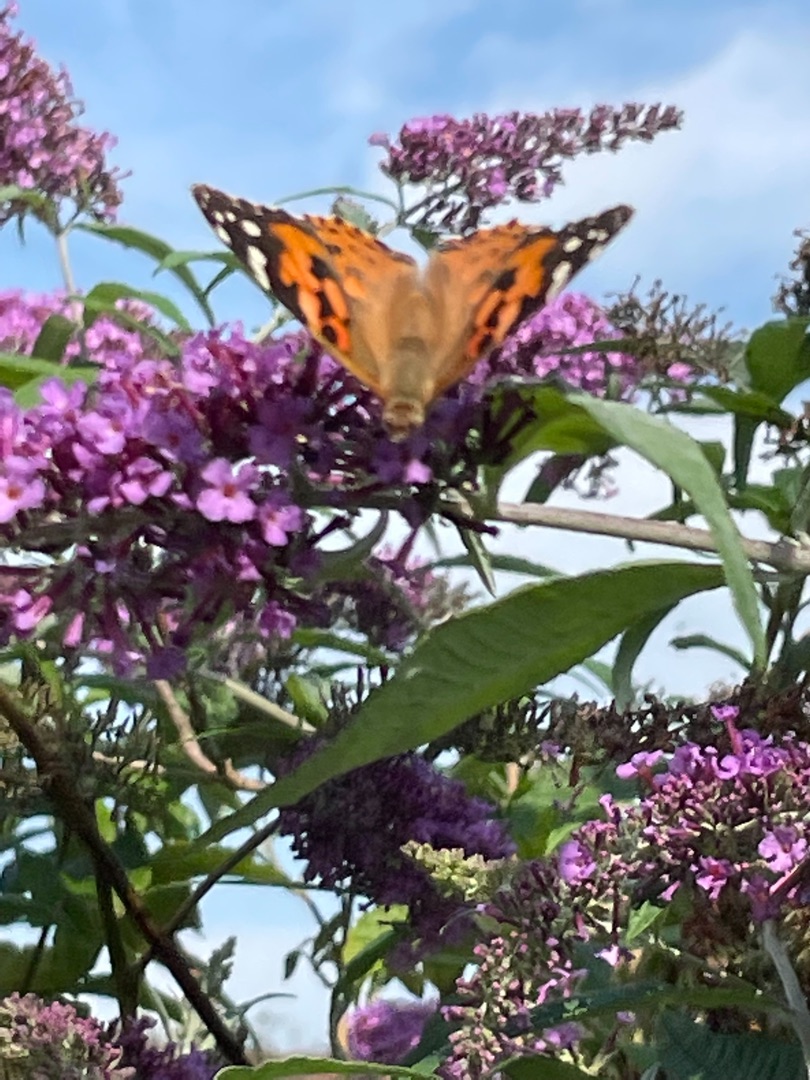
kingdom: Animalia
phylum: Arthropoda
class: Insecta
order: Lepidoptera
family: Nymphalidae
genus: Vanessa
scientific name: Vanessa cardui
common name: Tidselsommerfugl
